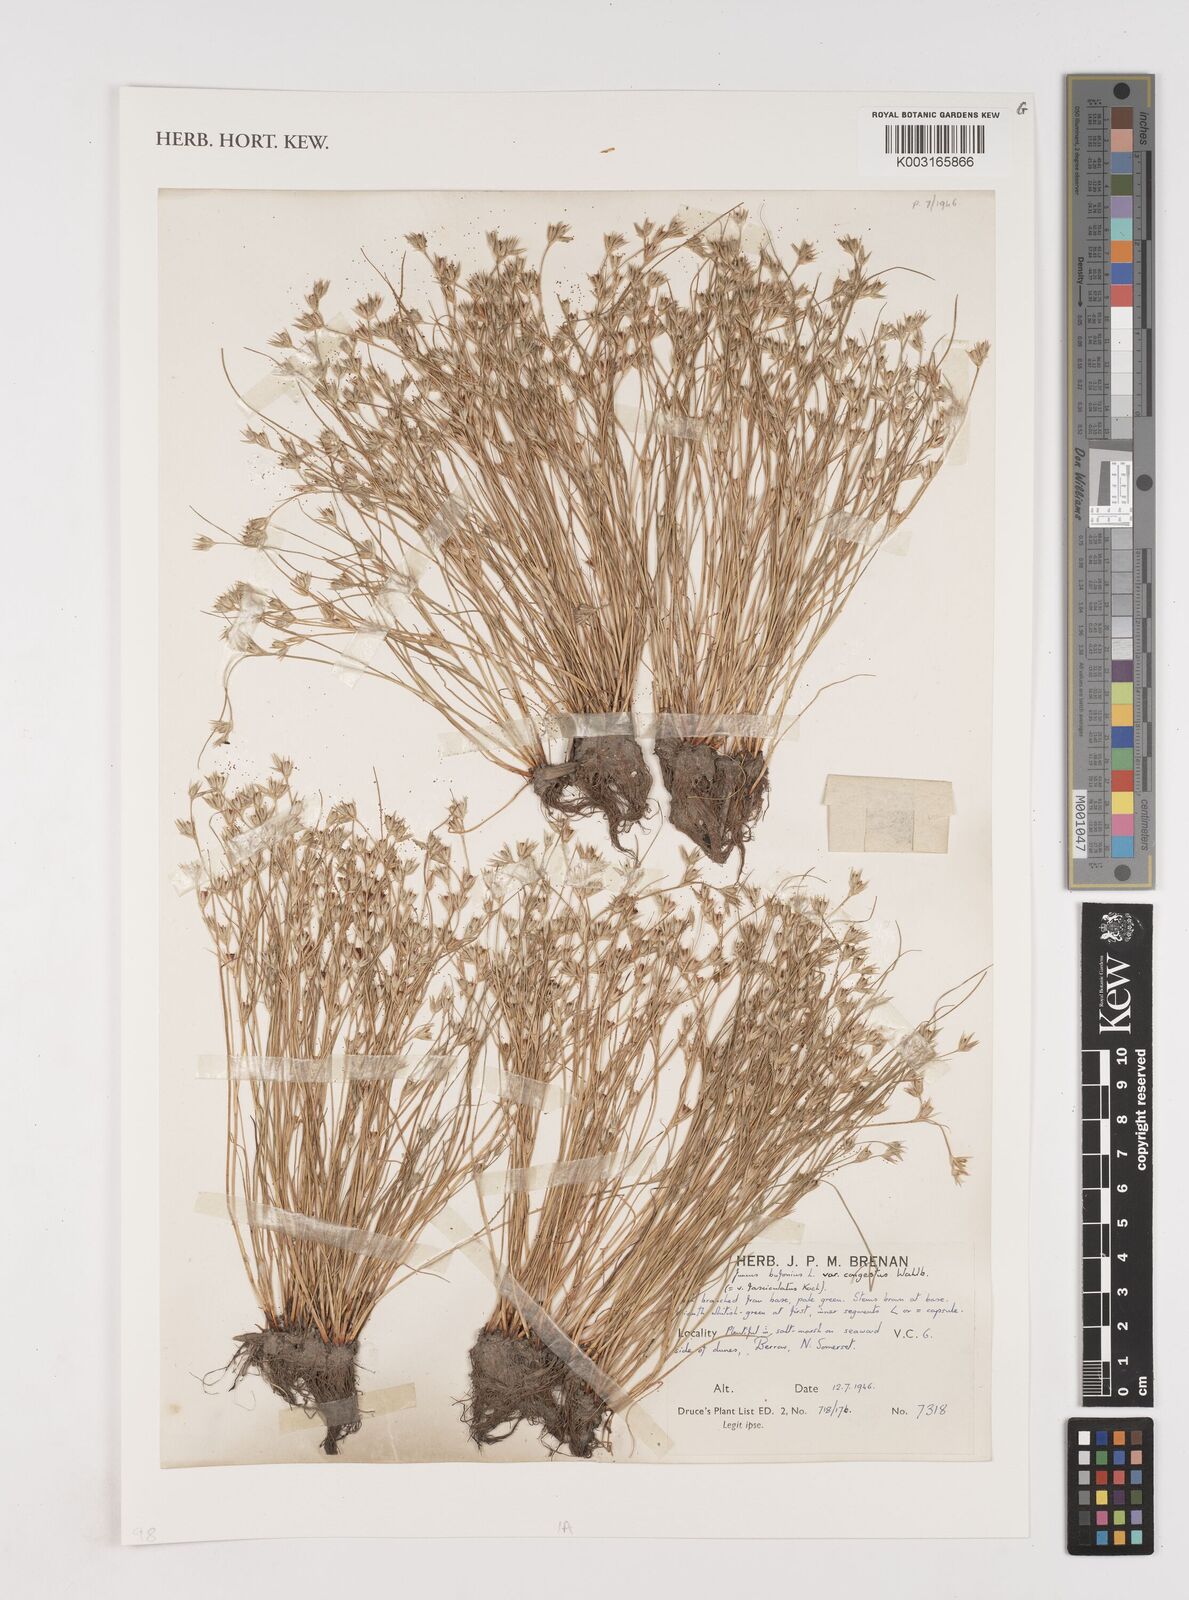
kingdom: Plantae
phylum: Tracheophyta
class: Liliopsida
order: Poales
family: Juncaceae
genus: Juncus
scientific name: Juncus bufonius
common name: Toad rush
